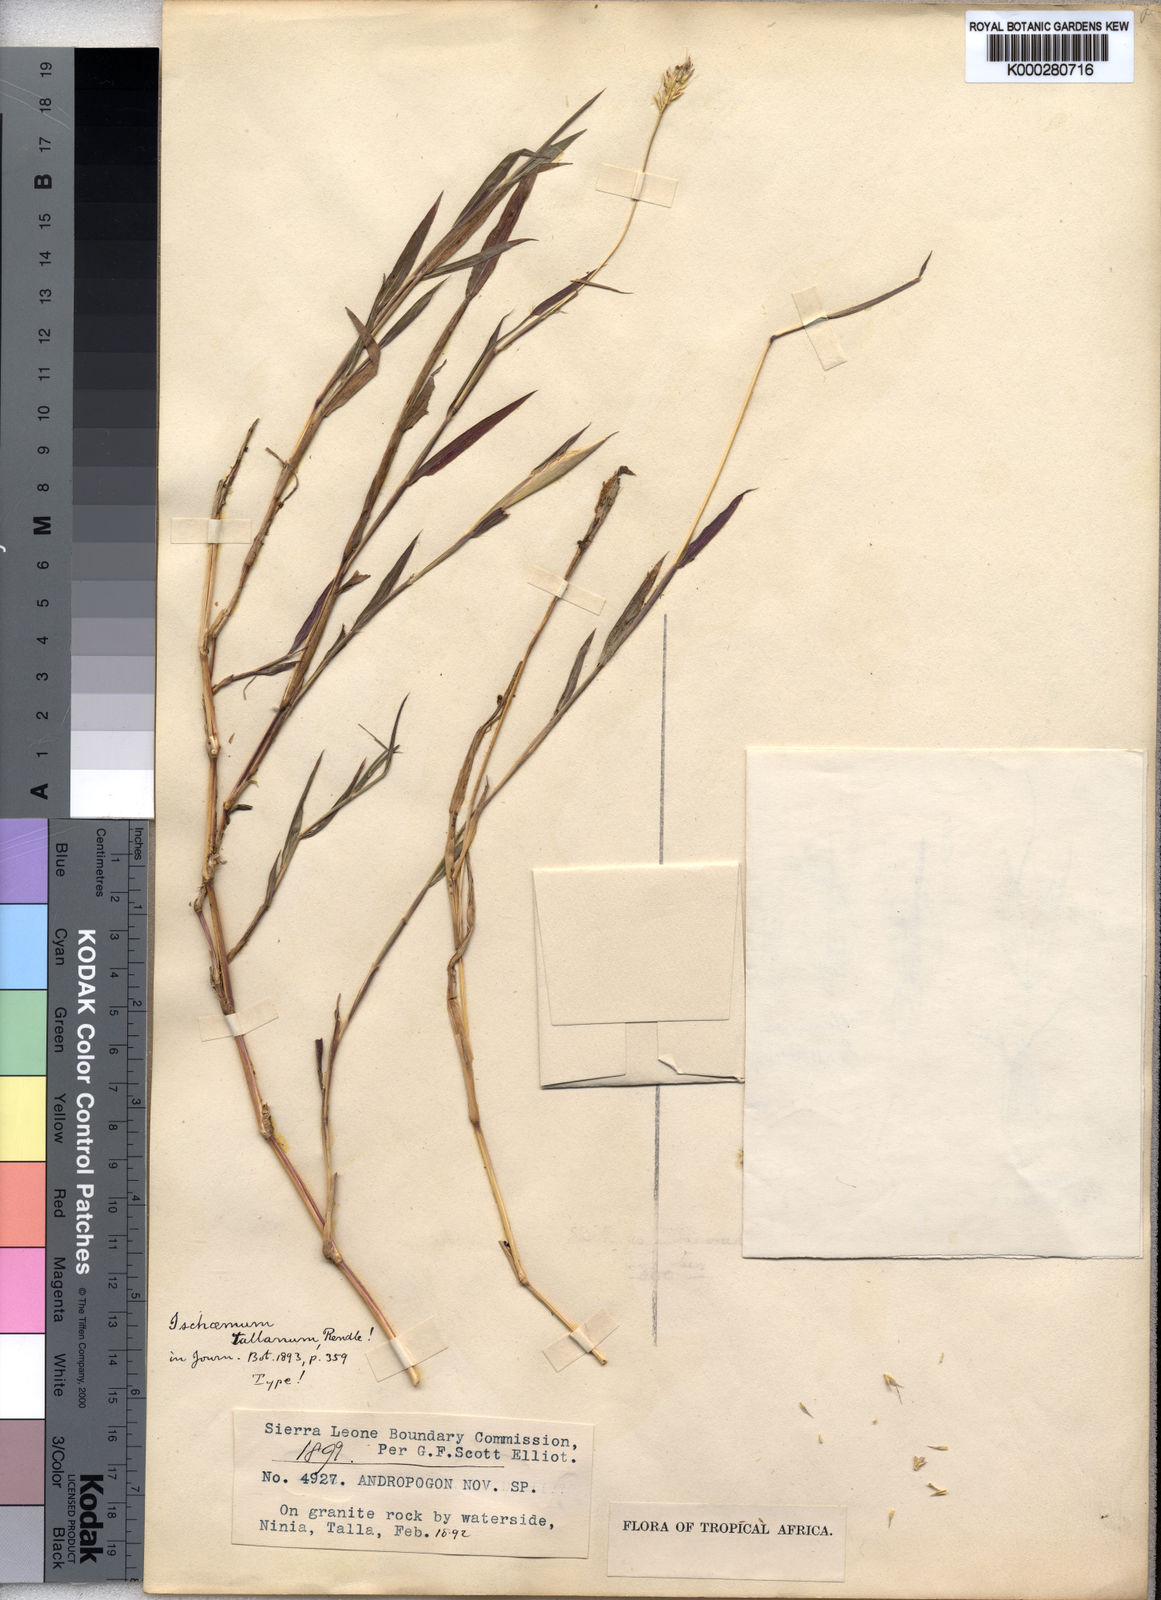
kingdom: Plantae
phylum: Tracheophyta
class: Liliopsida
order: Poales
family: Poaceae
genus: Ischaemum
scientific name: Ischaemum polystachyum
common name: Paddle grass
